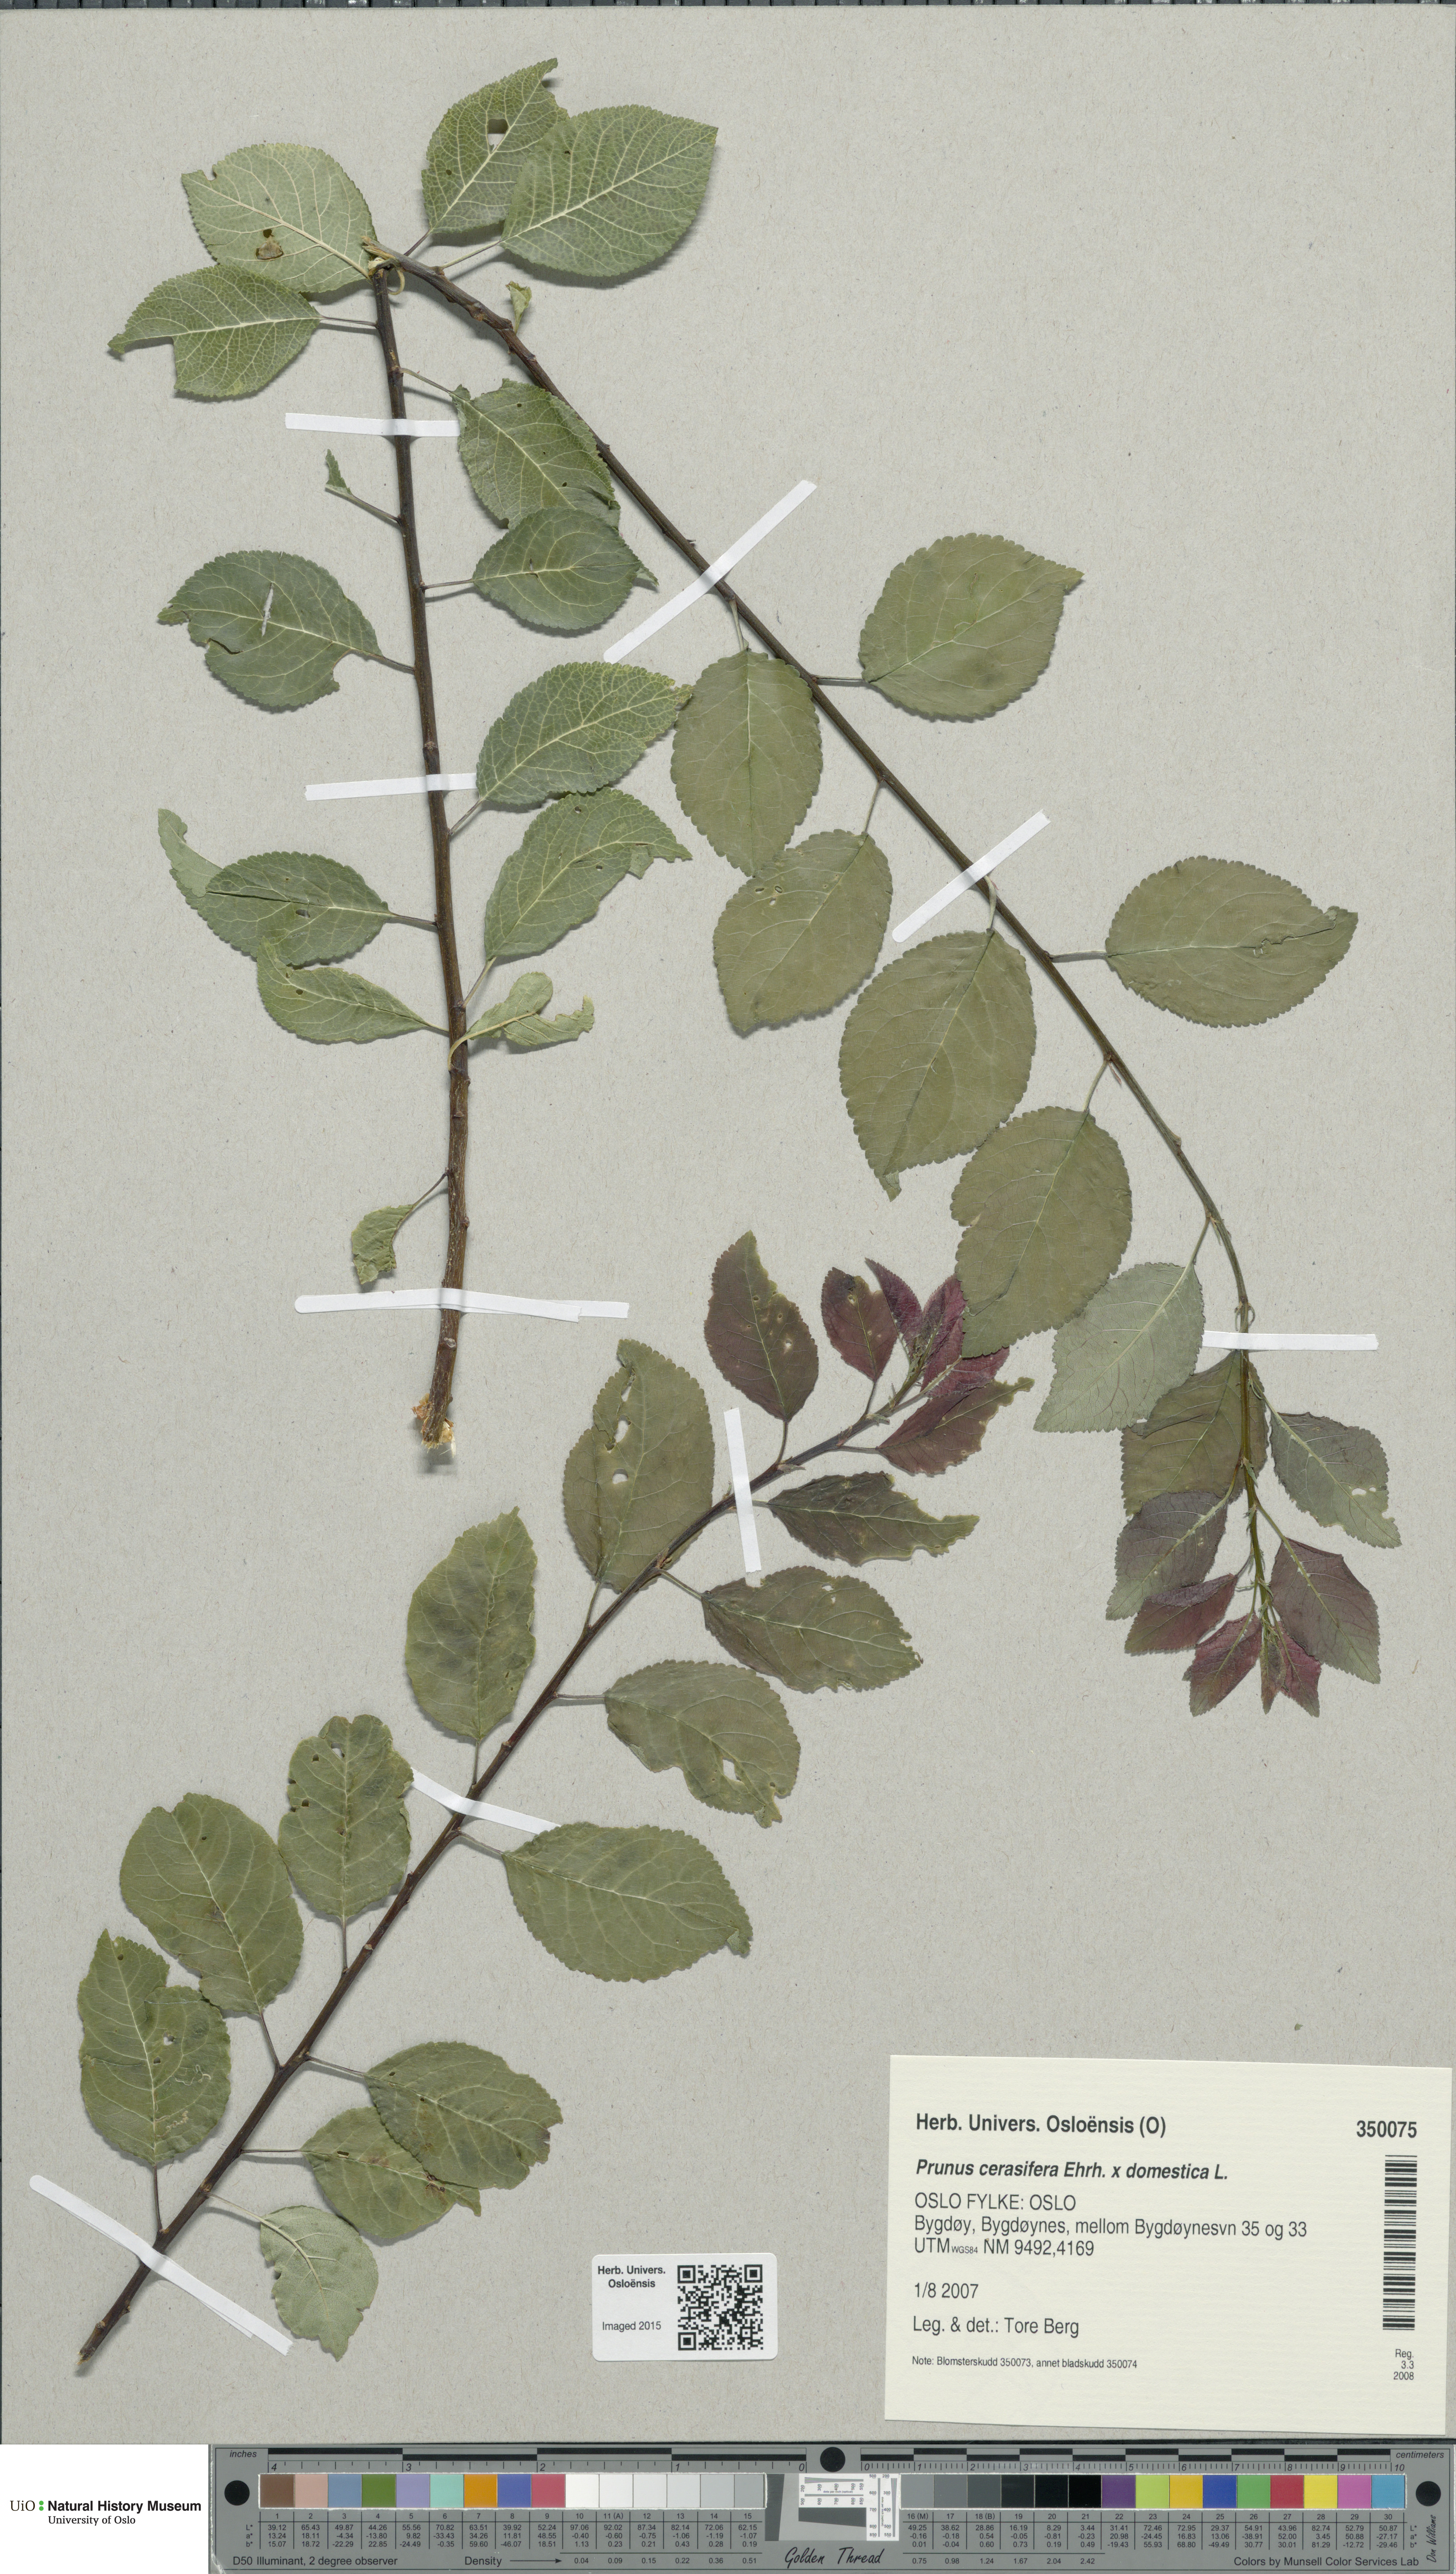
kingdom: Plantae
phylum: Tracheophyta
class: Magnoliopsida
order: Rosales
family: Rosaceae
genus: Prunus
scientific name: Prunus
